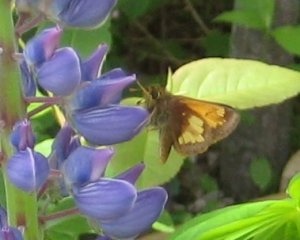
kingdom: Animalia
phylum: Arthropoda
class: Insecta
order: Lepidoptera
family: Hesperiidae
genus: Lon
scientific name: Lon hobomok
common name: Hobomok Skipper
